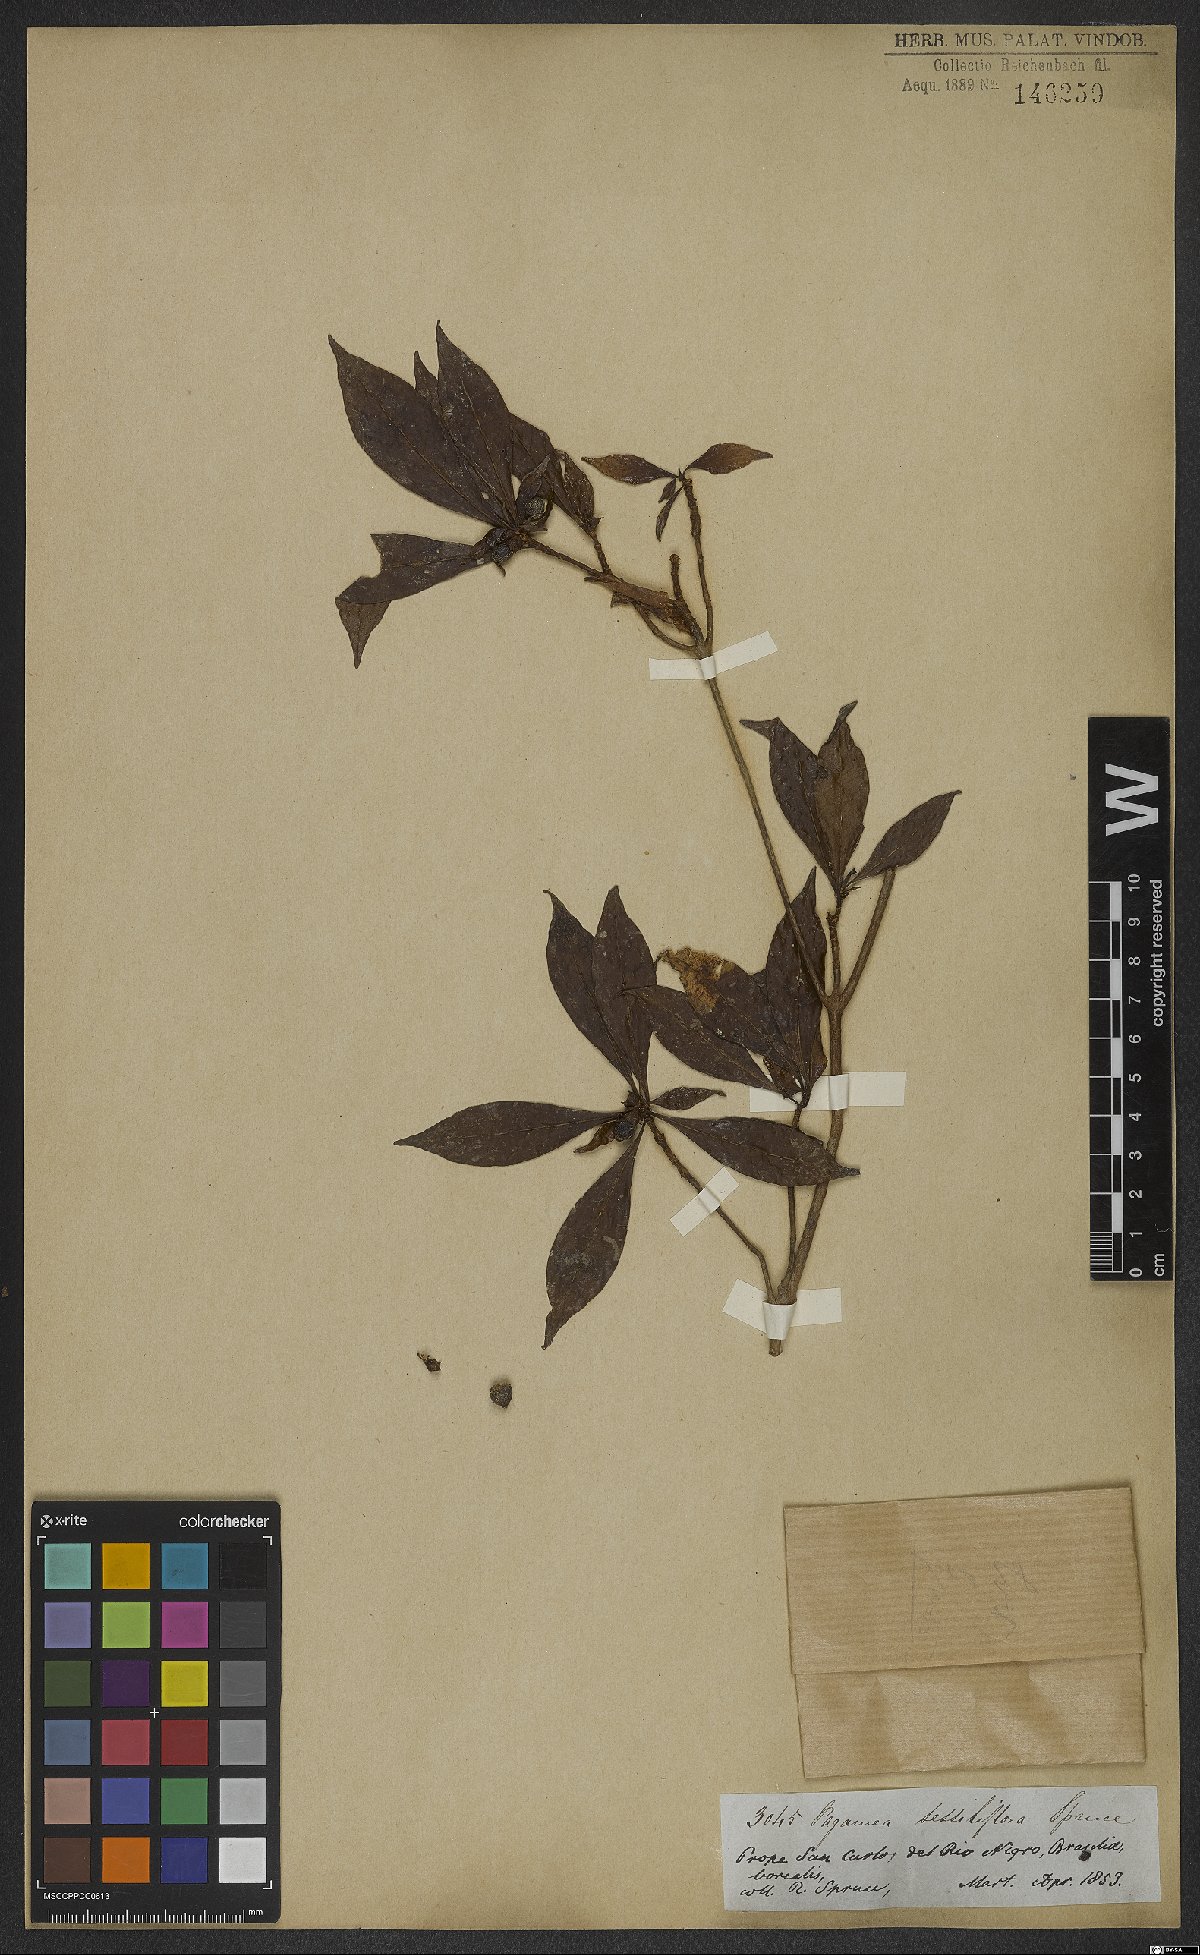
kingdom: Plantae
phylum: Tracheophyta
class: Magnoliopsida
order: Gentianales
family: Rubiaceae
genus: Pagamea
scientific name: Pagamea sessiliflora
